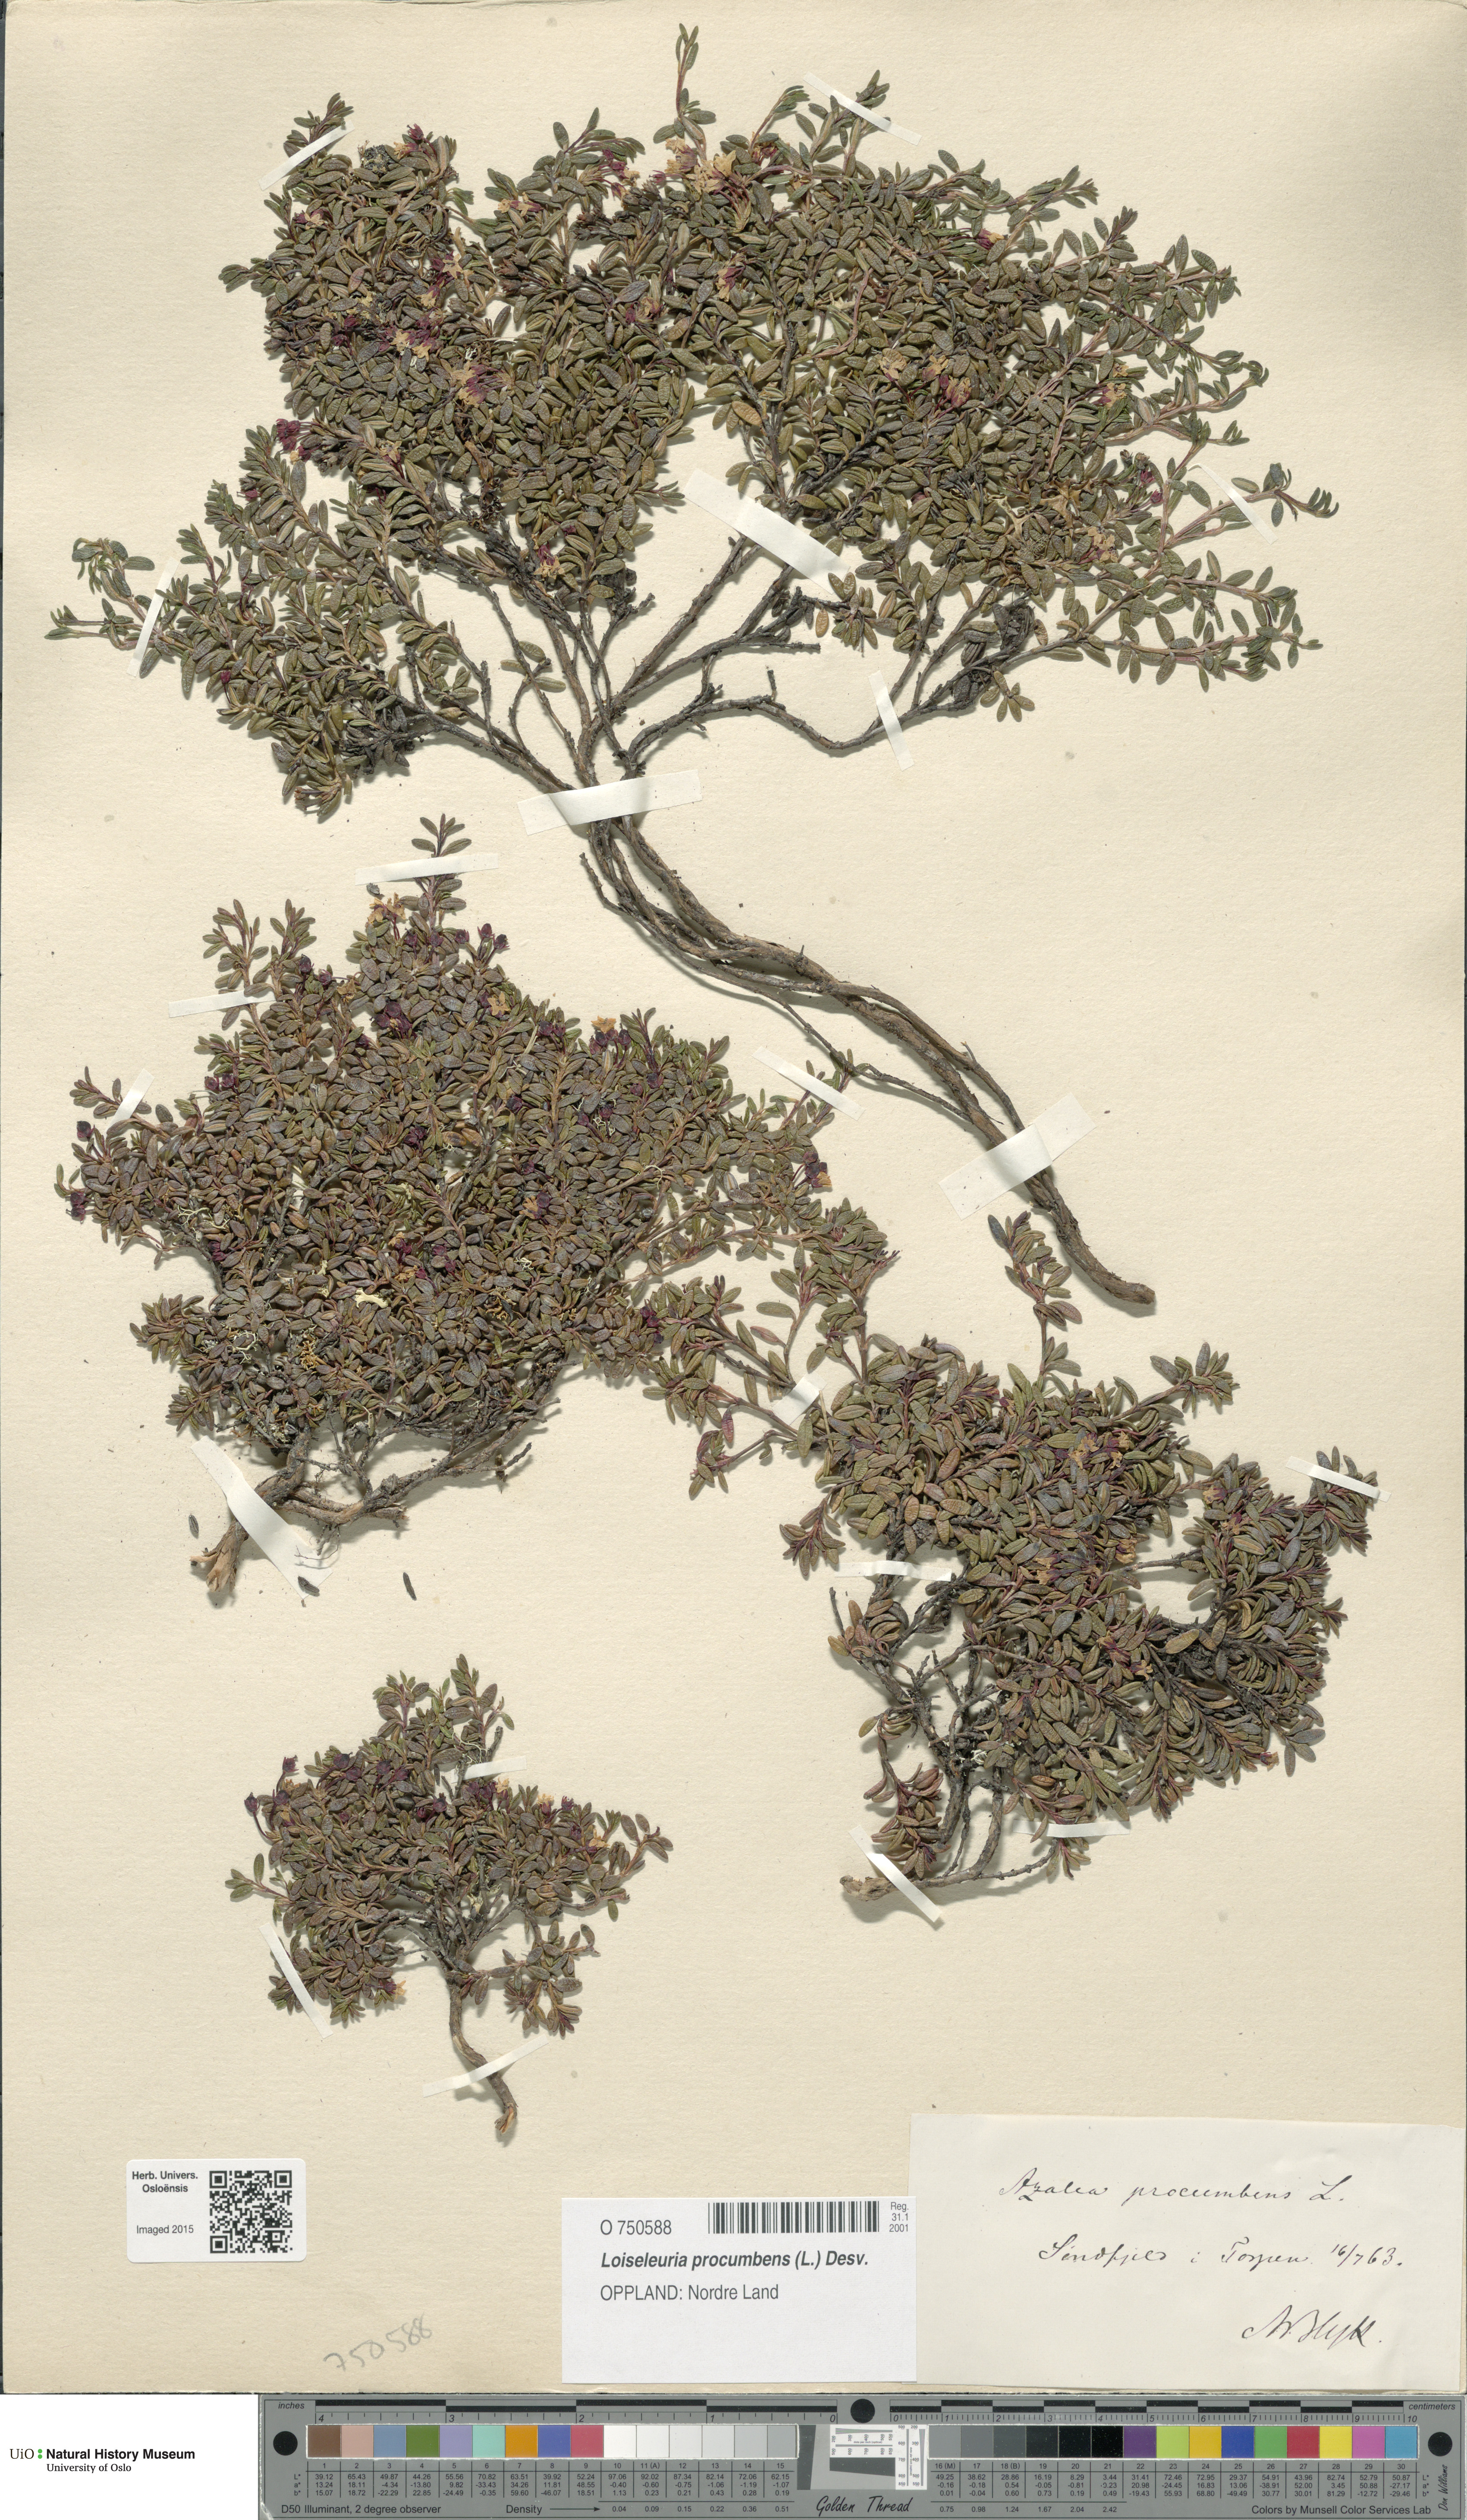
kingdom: Plantae
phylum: Tracheophyta
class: Magnoliopsida
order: Ericales
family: Ericaceae
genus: Kalmia
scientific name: Kalmia procumbens
